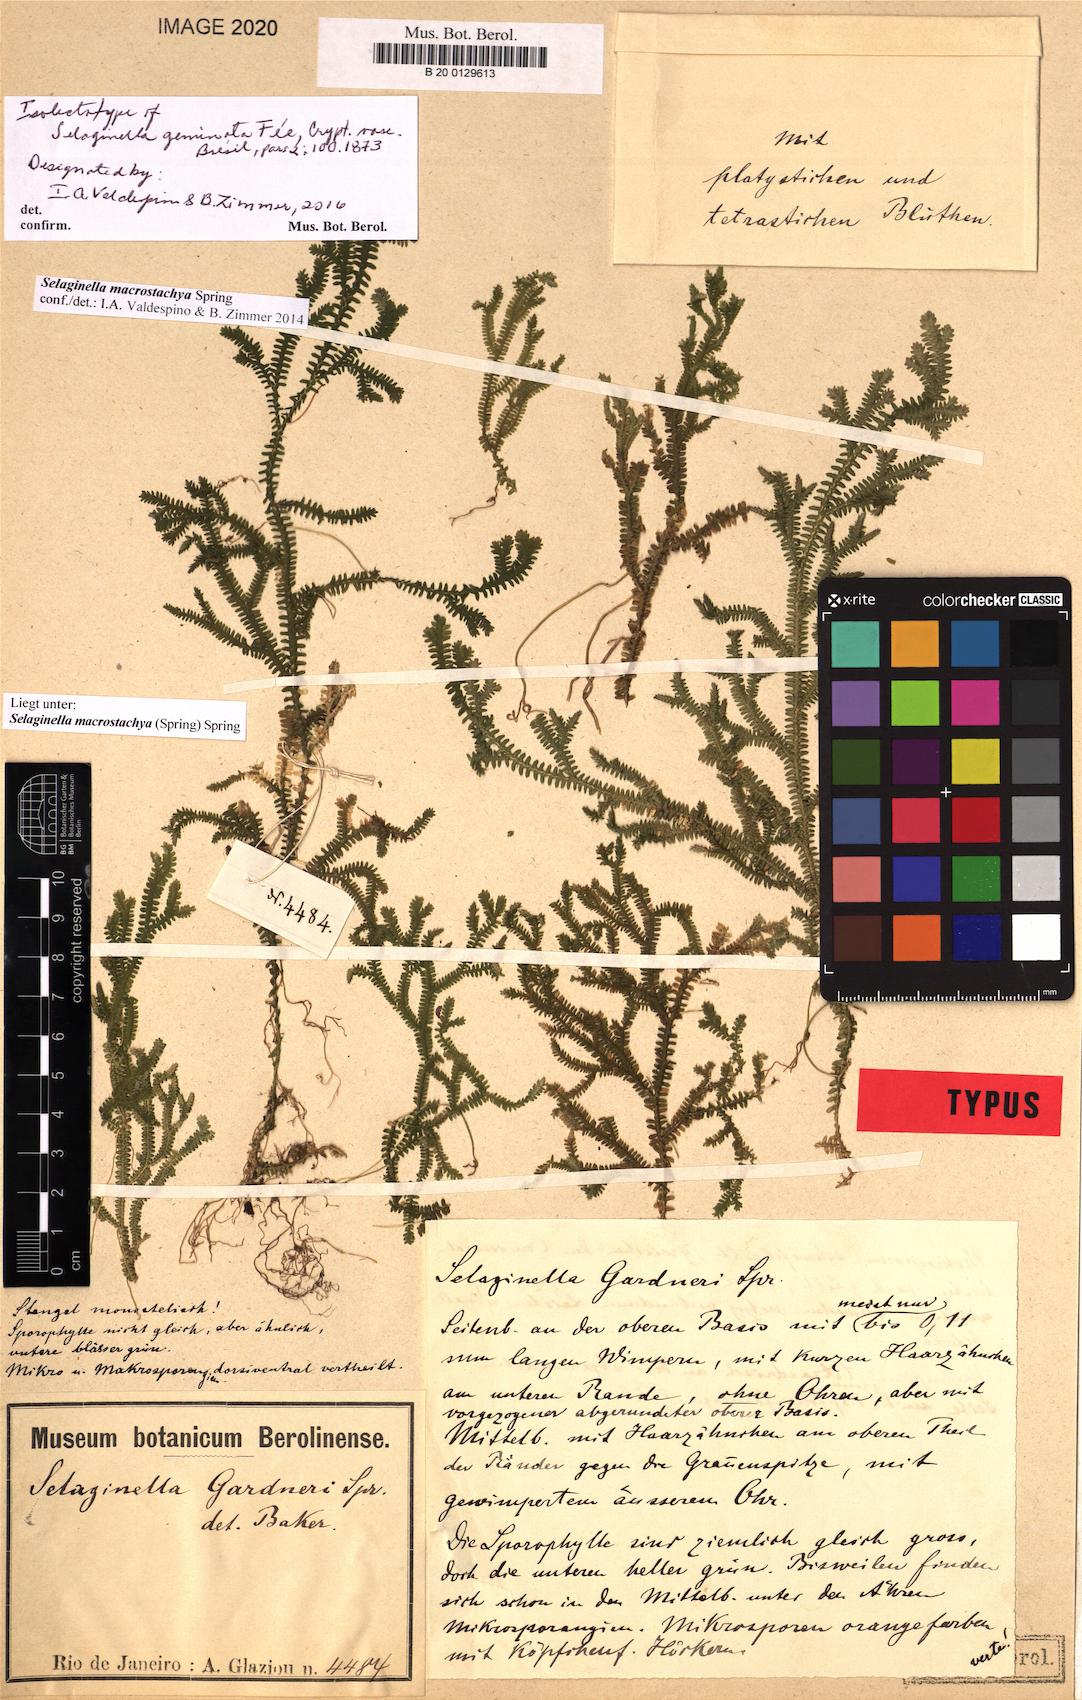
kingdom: Plantae
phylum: Tracheophyta
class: Lycopodiopsida
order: Selaginellales
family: Selaginellaceae
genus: Selaginella
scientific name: Selaginella macrostachya
